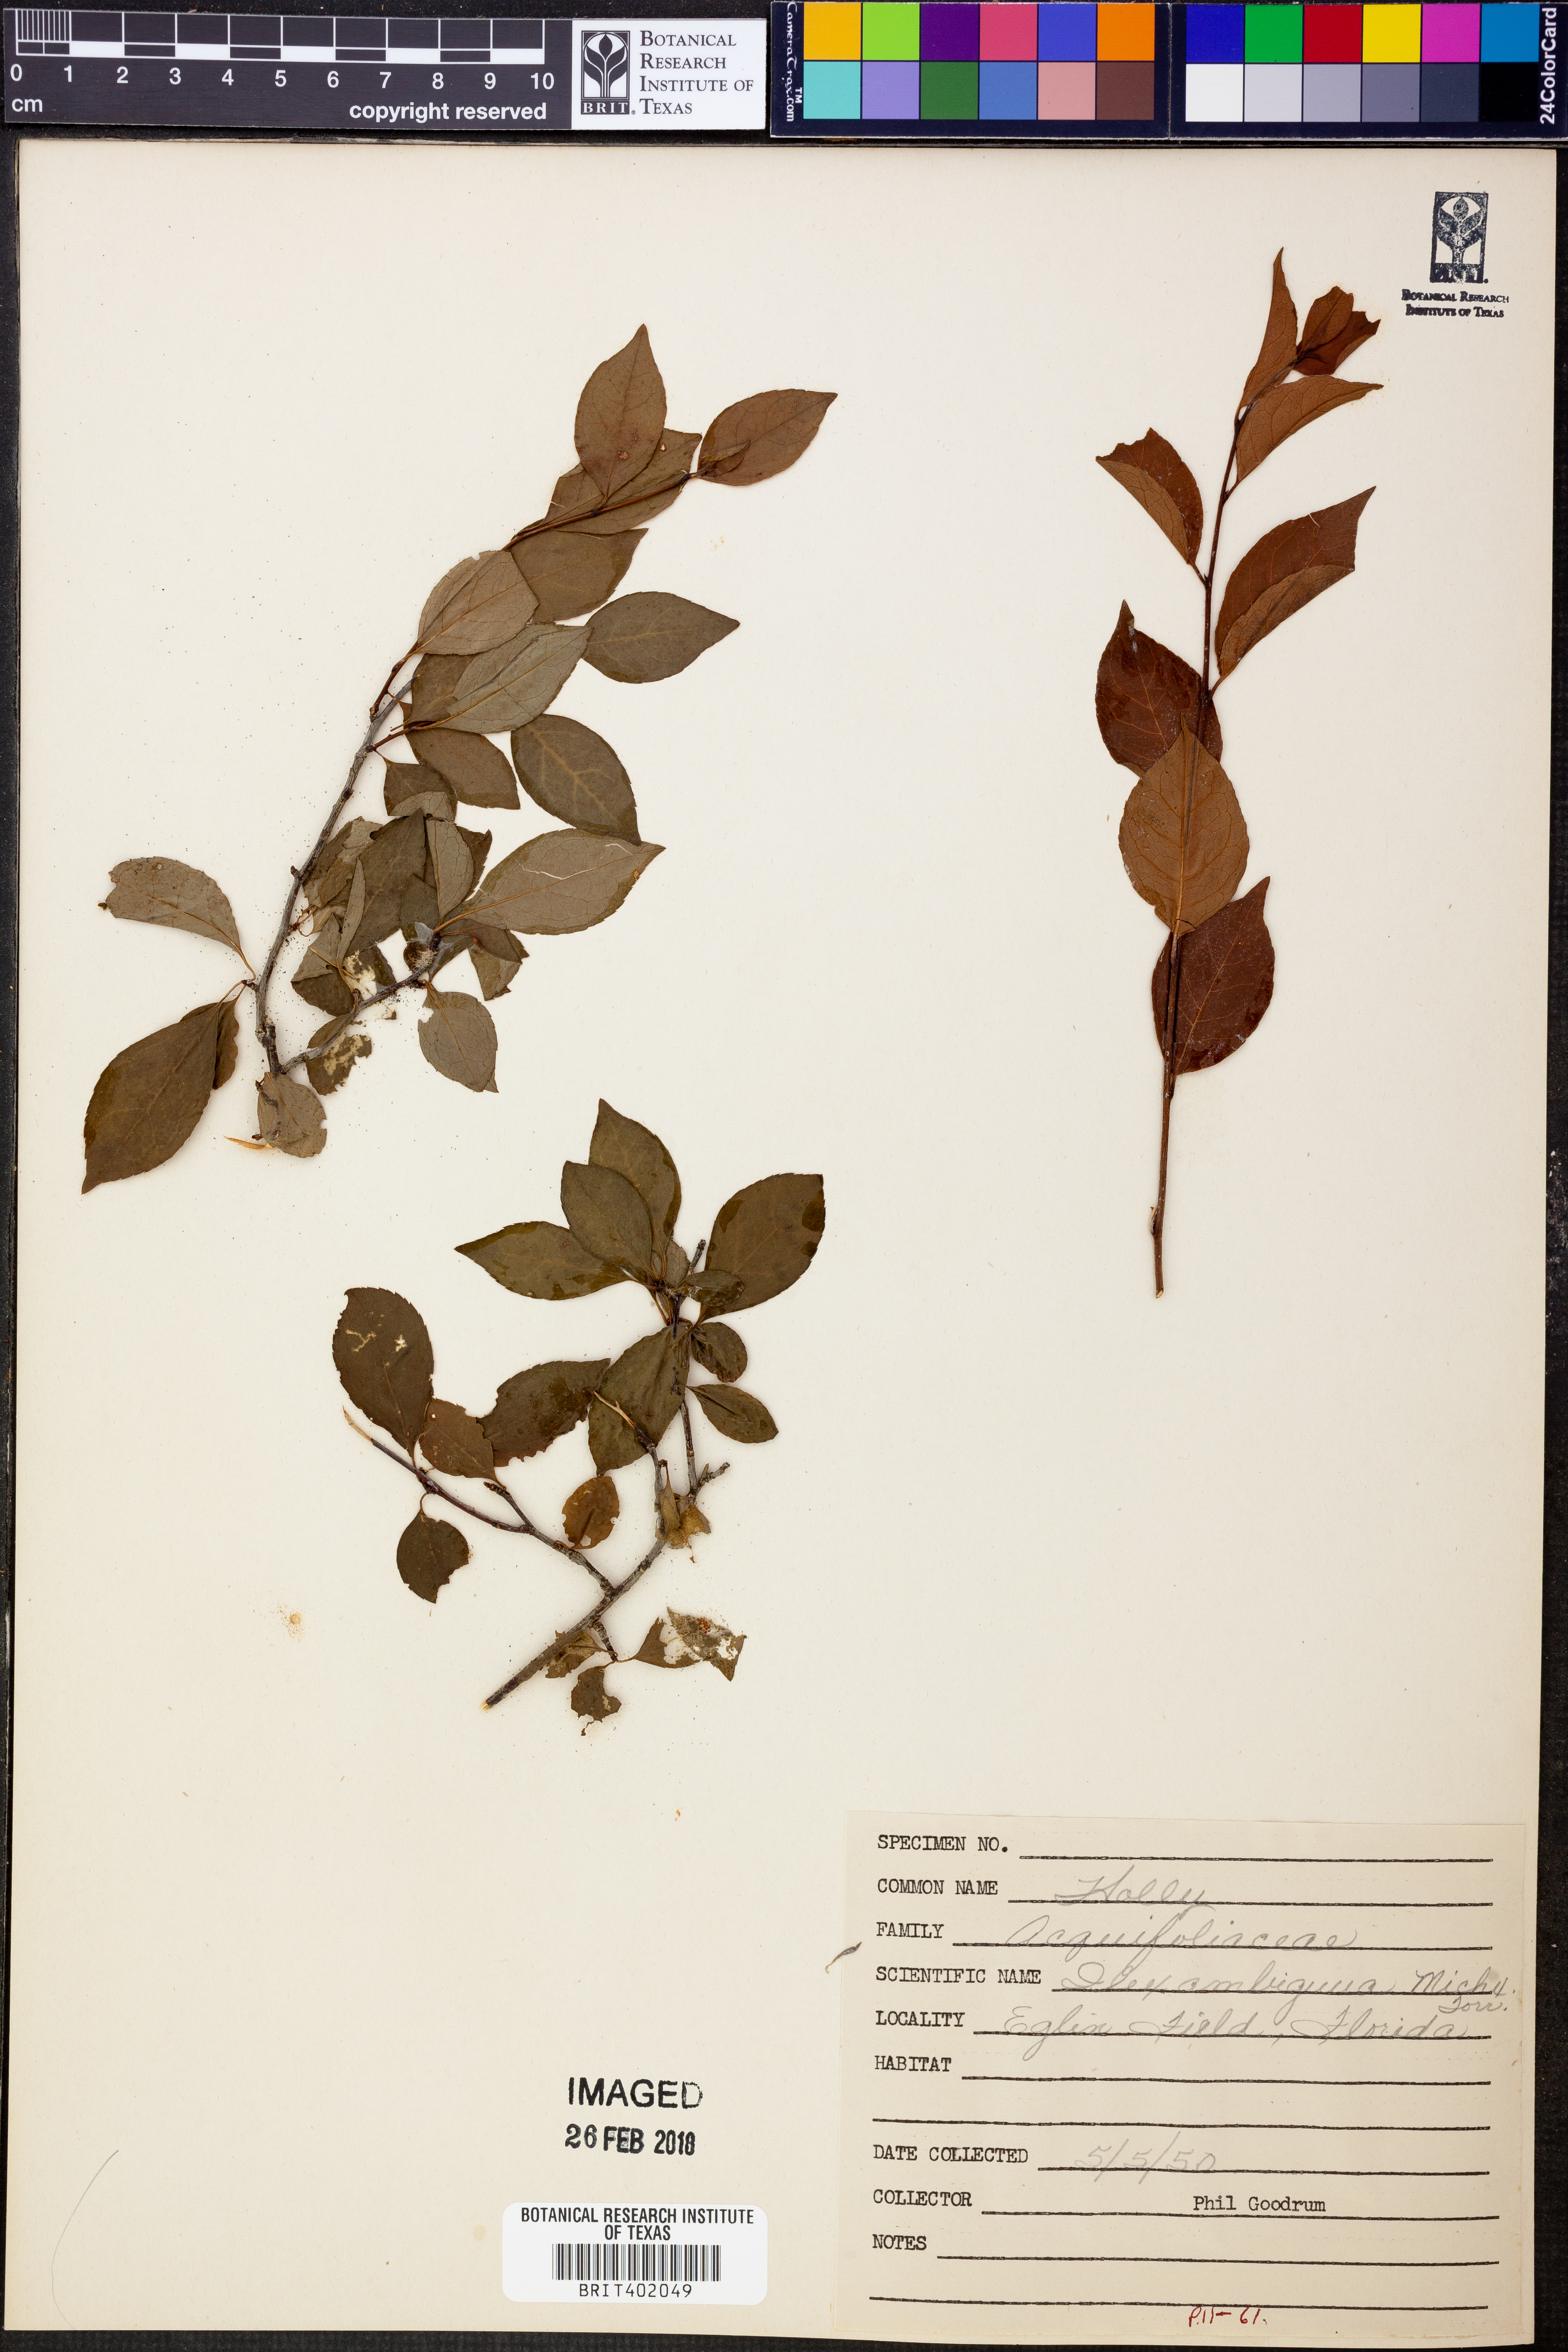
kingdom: Plantae
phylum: Tracheophyta
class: Magnoliopsida
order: Aquifoliales
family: Aquifoliaceae
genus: Ilex
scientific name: Ilex ambigua
